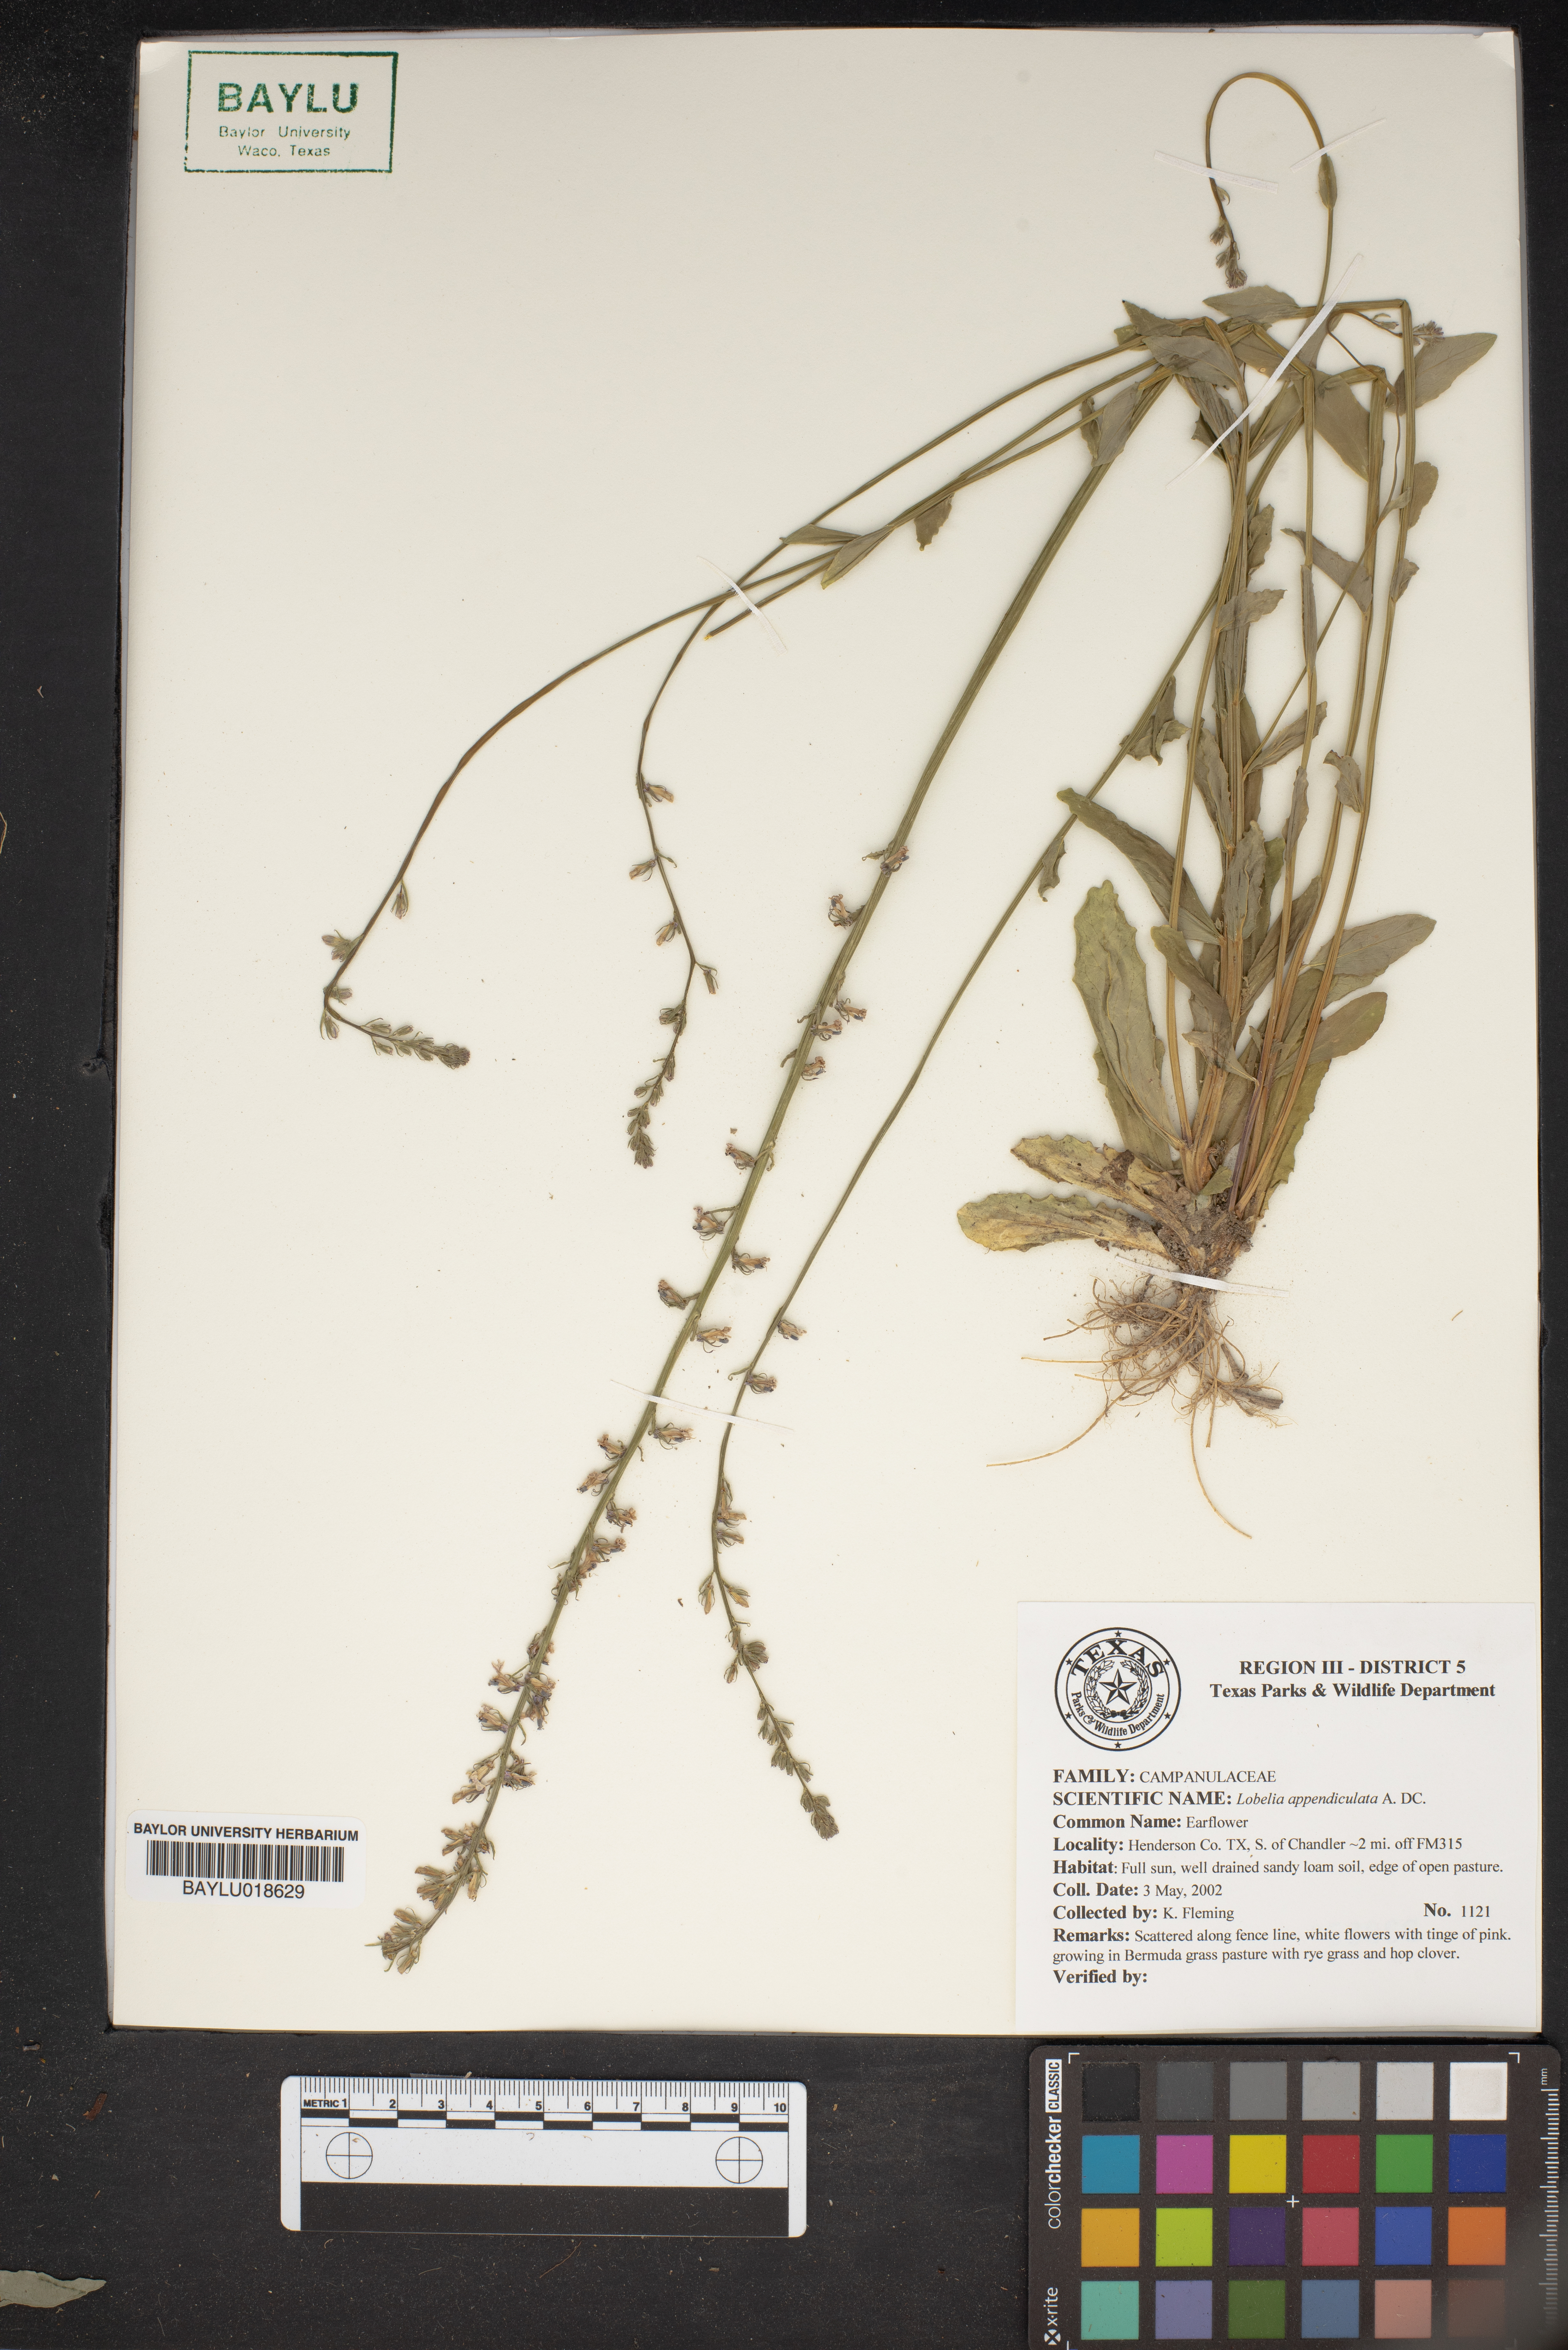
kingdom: Plantae
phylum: Tracheophyta
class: Magnoliopsida
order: Asterales
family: Campanulaceae
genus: Lobelia
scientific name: Lobelia appendiculata
